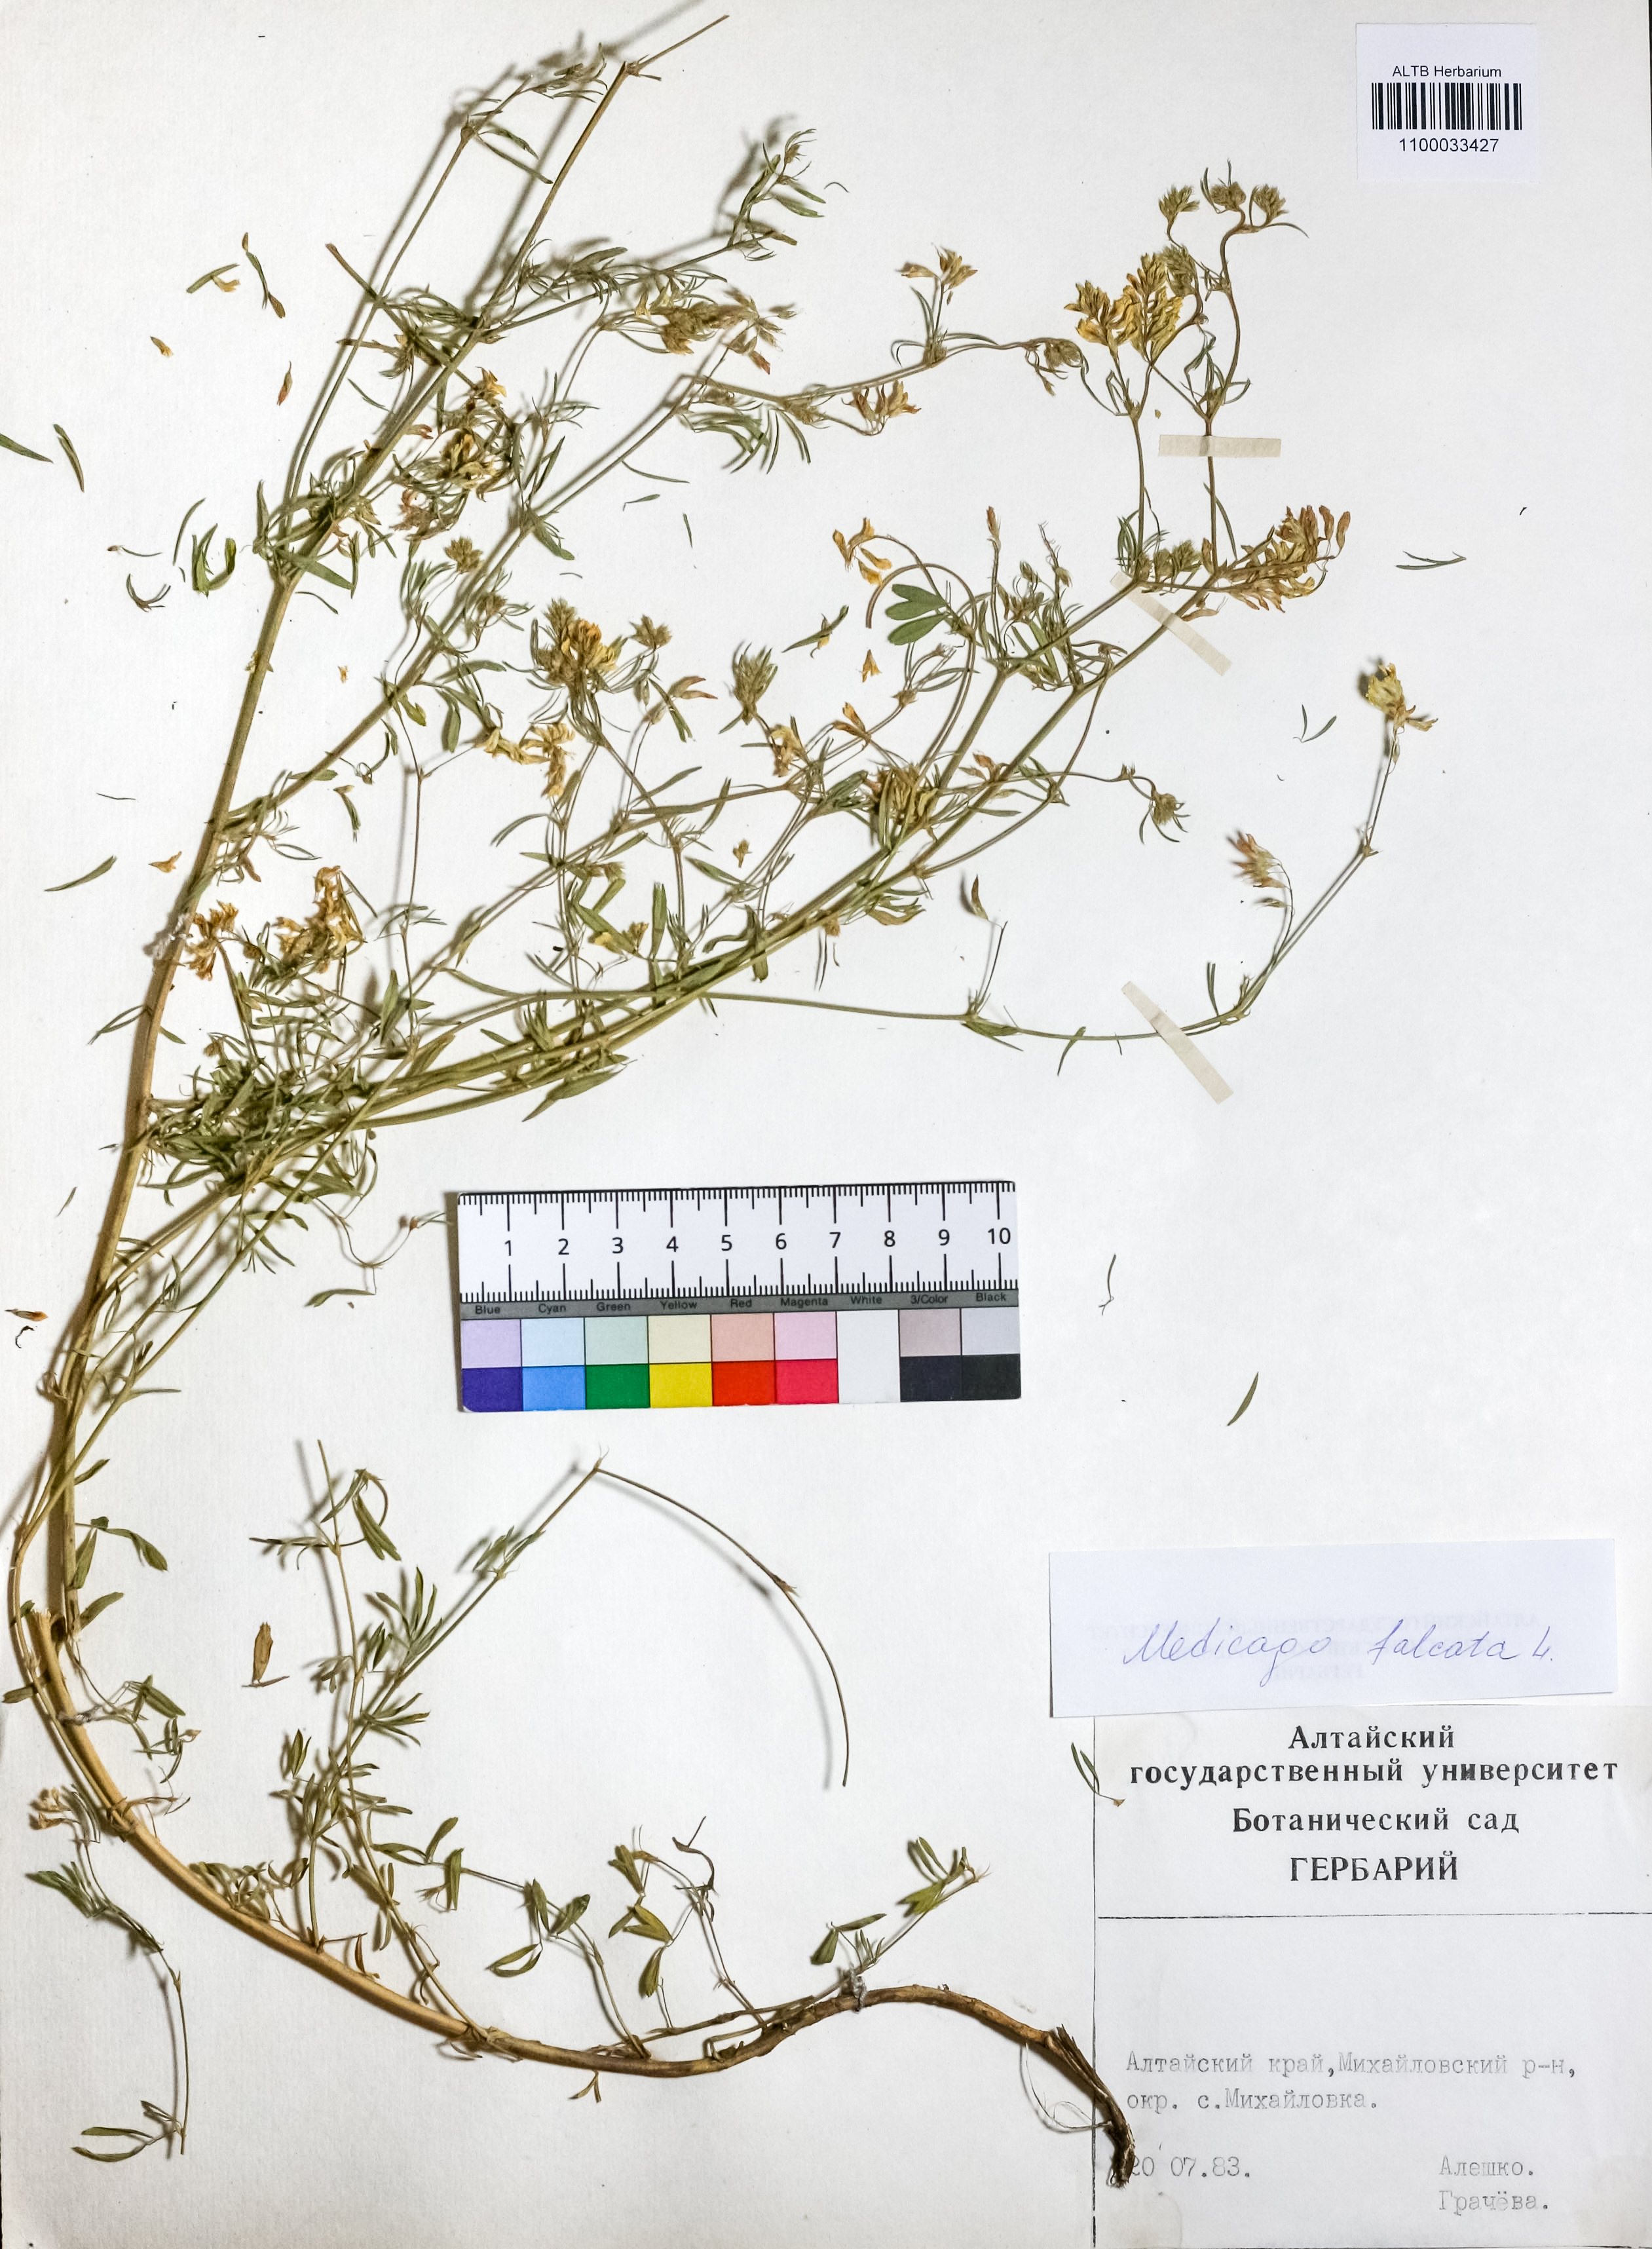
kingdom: Plantae
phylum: Tracheophyta
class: Magnoliopsida
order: Fabales
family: Fabaceae
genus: Medicago
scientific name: Medicago falcata
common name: Sickle medick
